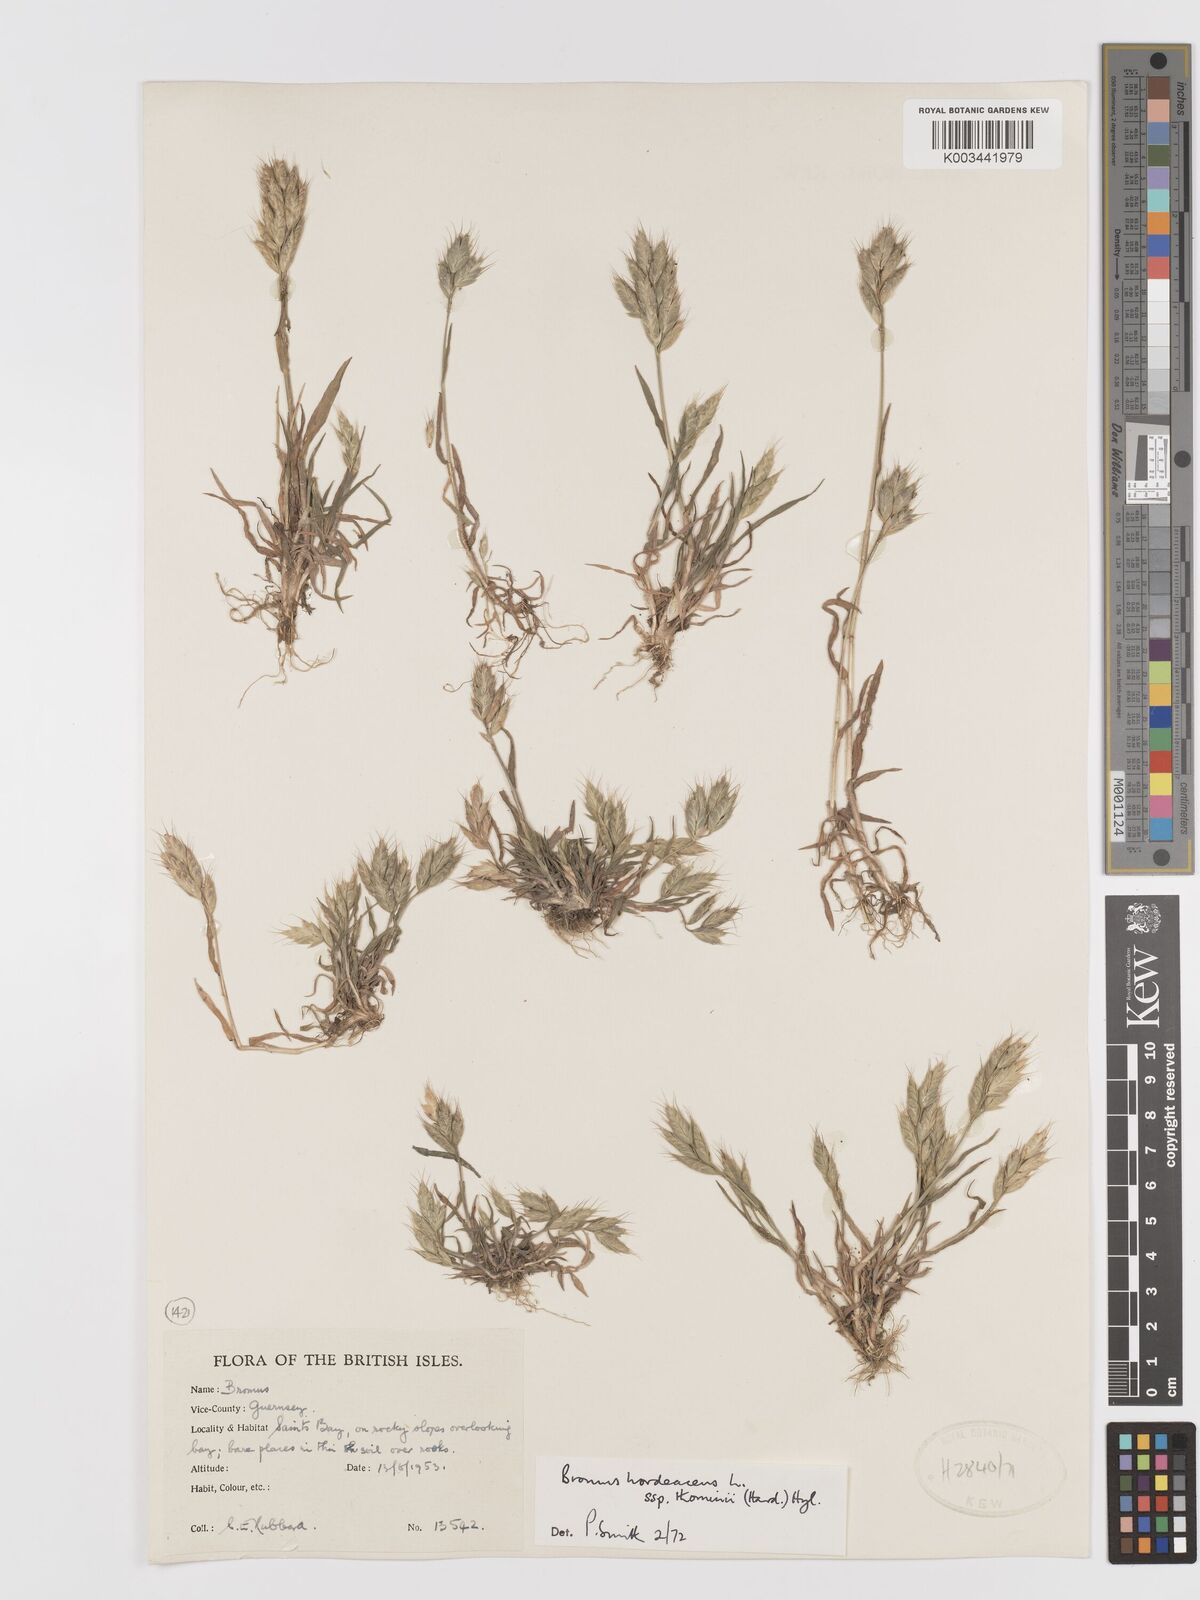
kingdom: Plantae
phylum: Tracheophyta
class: Liliopsida
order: Poales
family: Poaceae
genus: Bromus
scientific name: Bromus hordeaceus
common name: Soft brome
